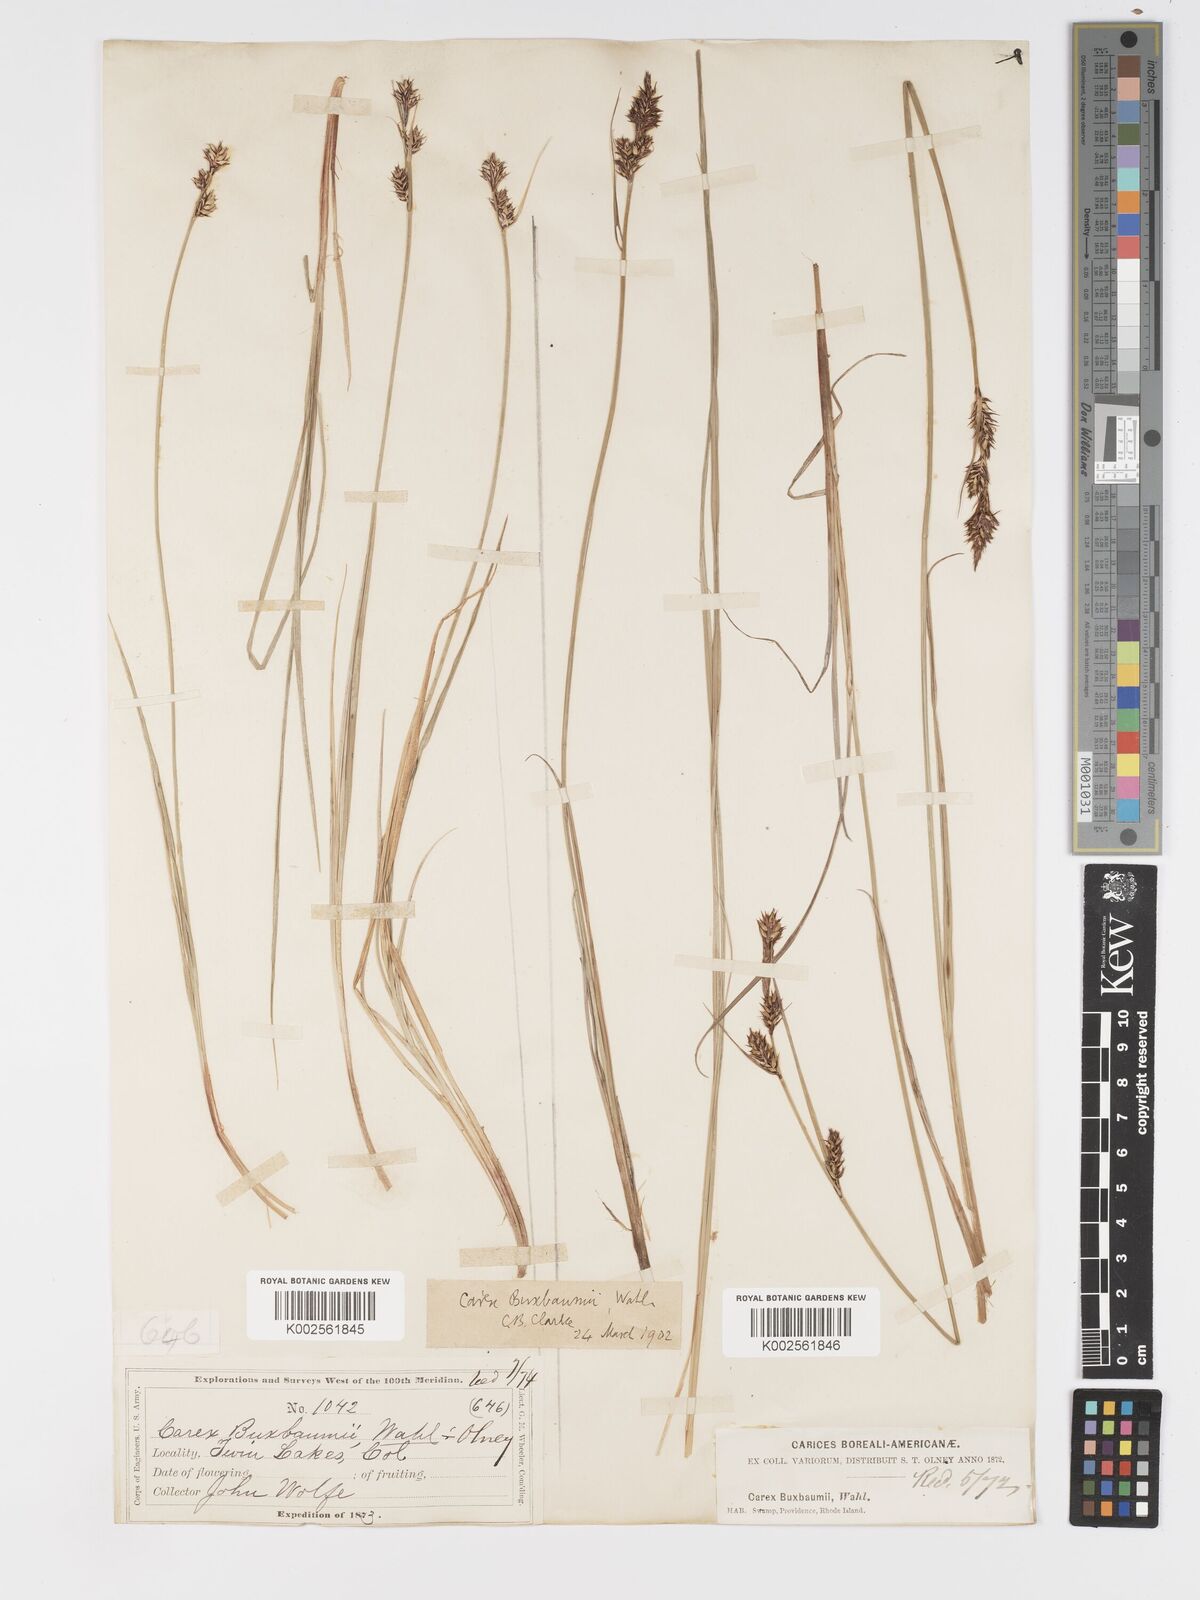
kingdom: Plantae
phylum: Tracheophyta
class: Liliopsida
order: Poales
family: Cyperaceae
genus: Carex
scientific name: Carex buxbaumii
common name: Club sedge
